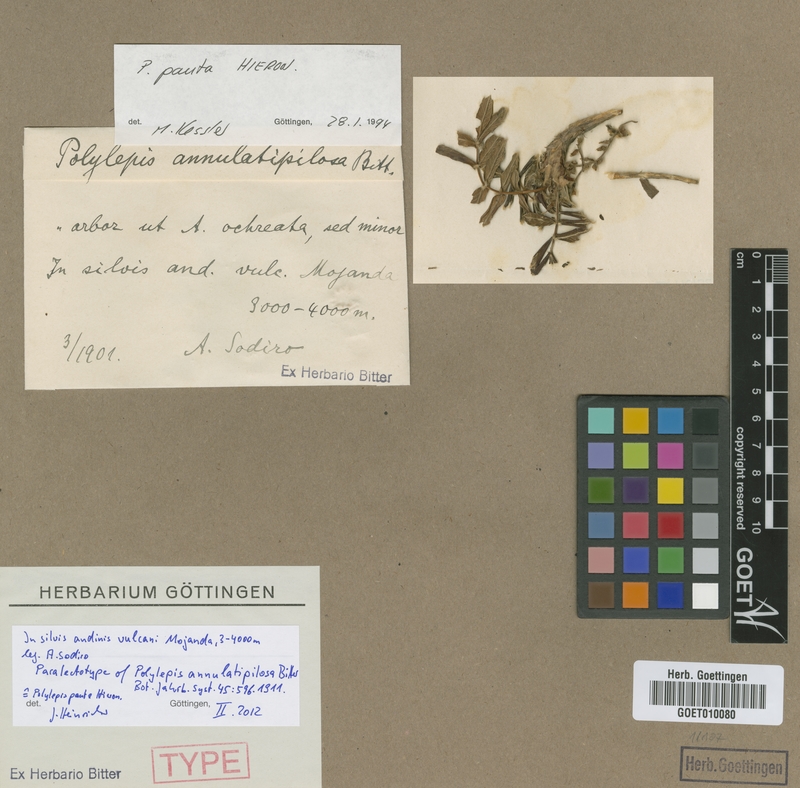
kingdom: Plantae
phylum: Tracheophyta
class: Magnoliopsida
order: Rosales
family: Rosaceae
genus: Polylepis
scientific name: Polylepis pauta
